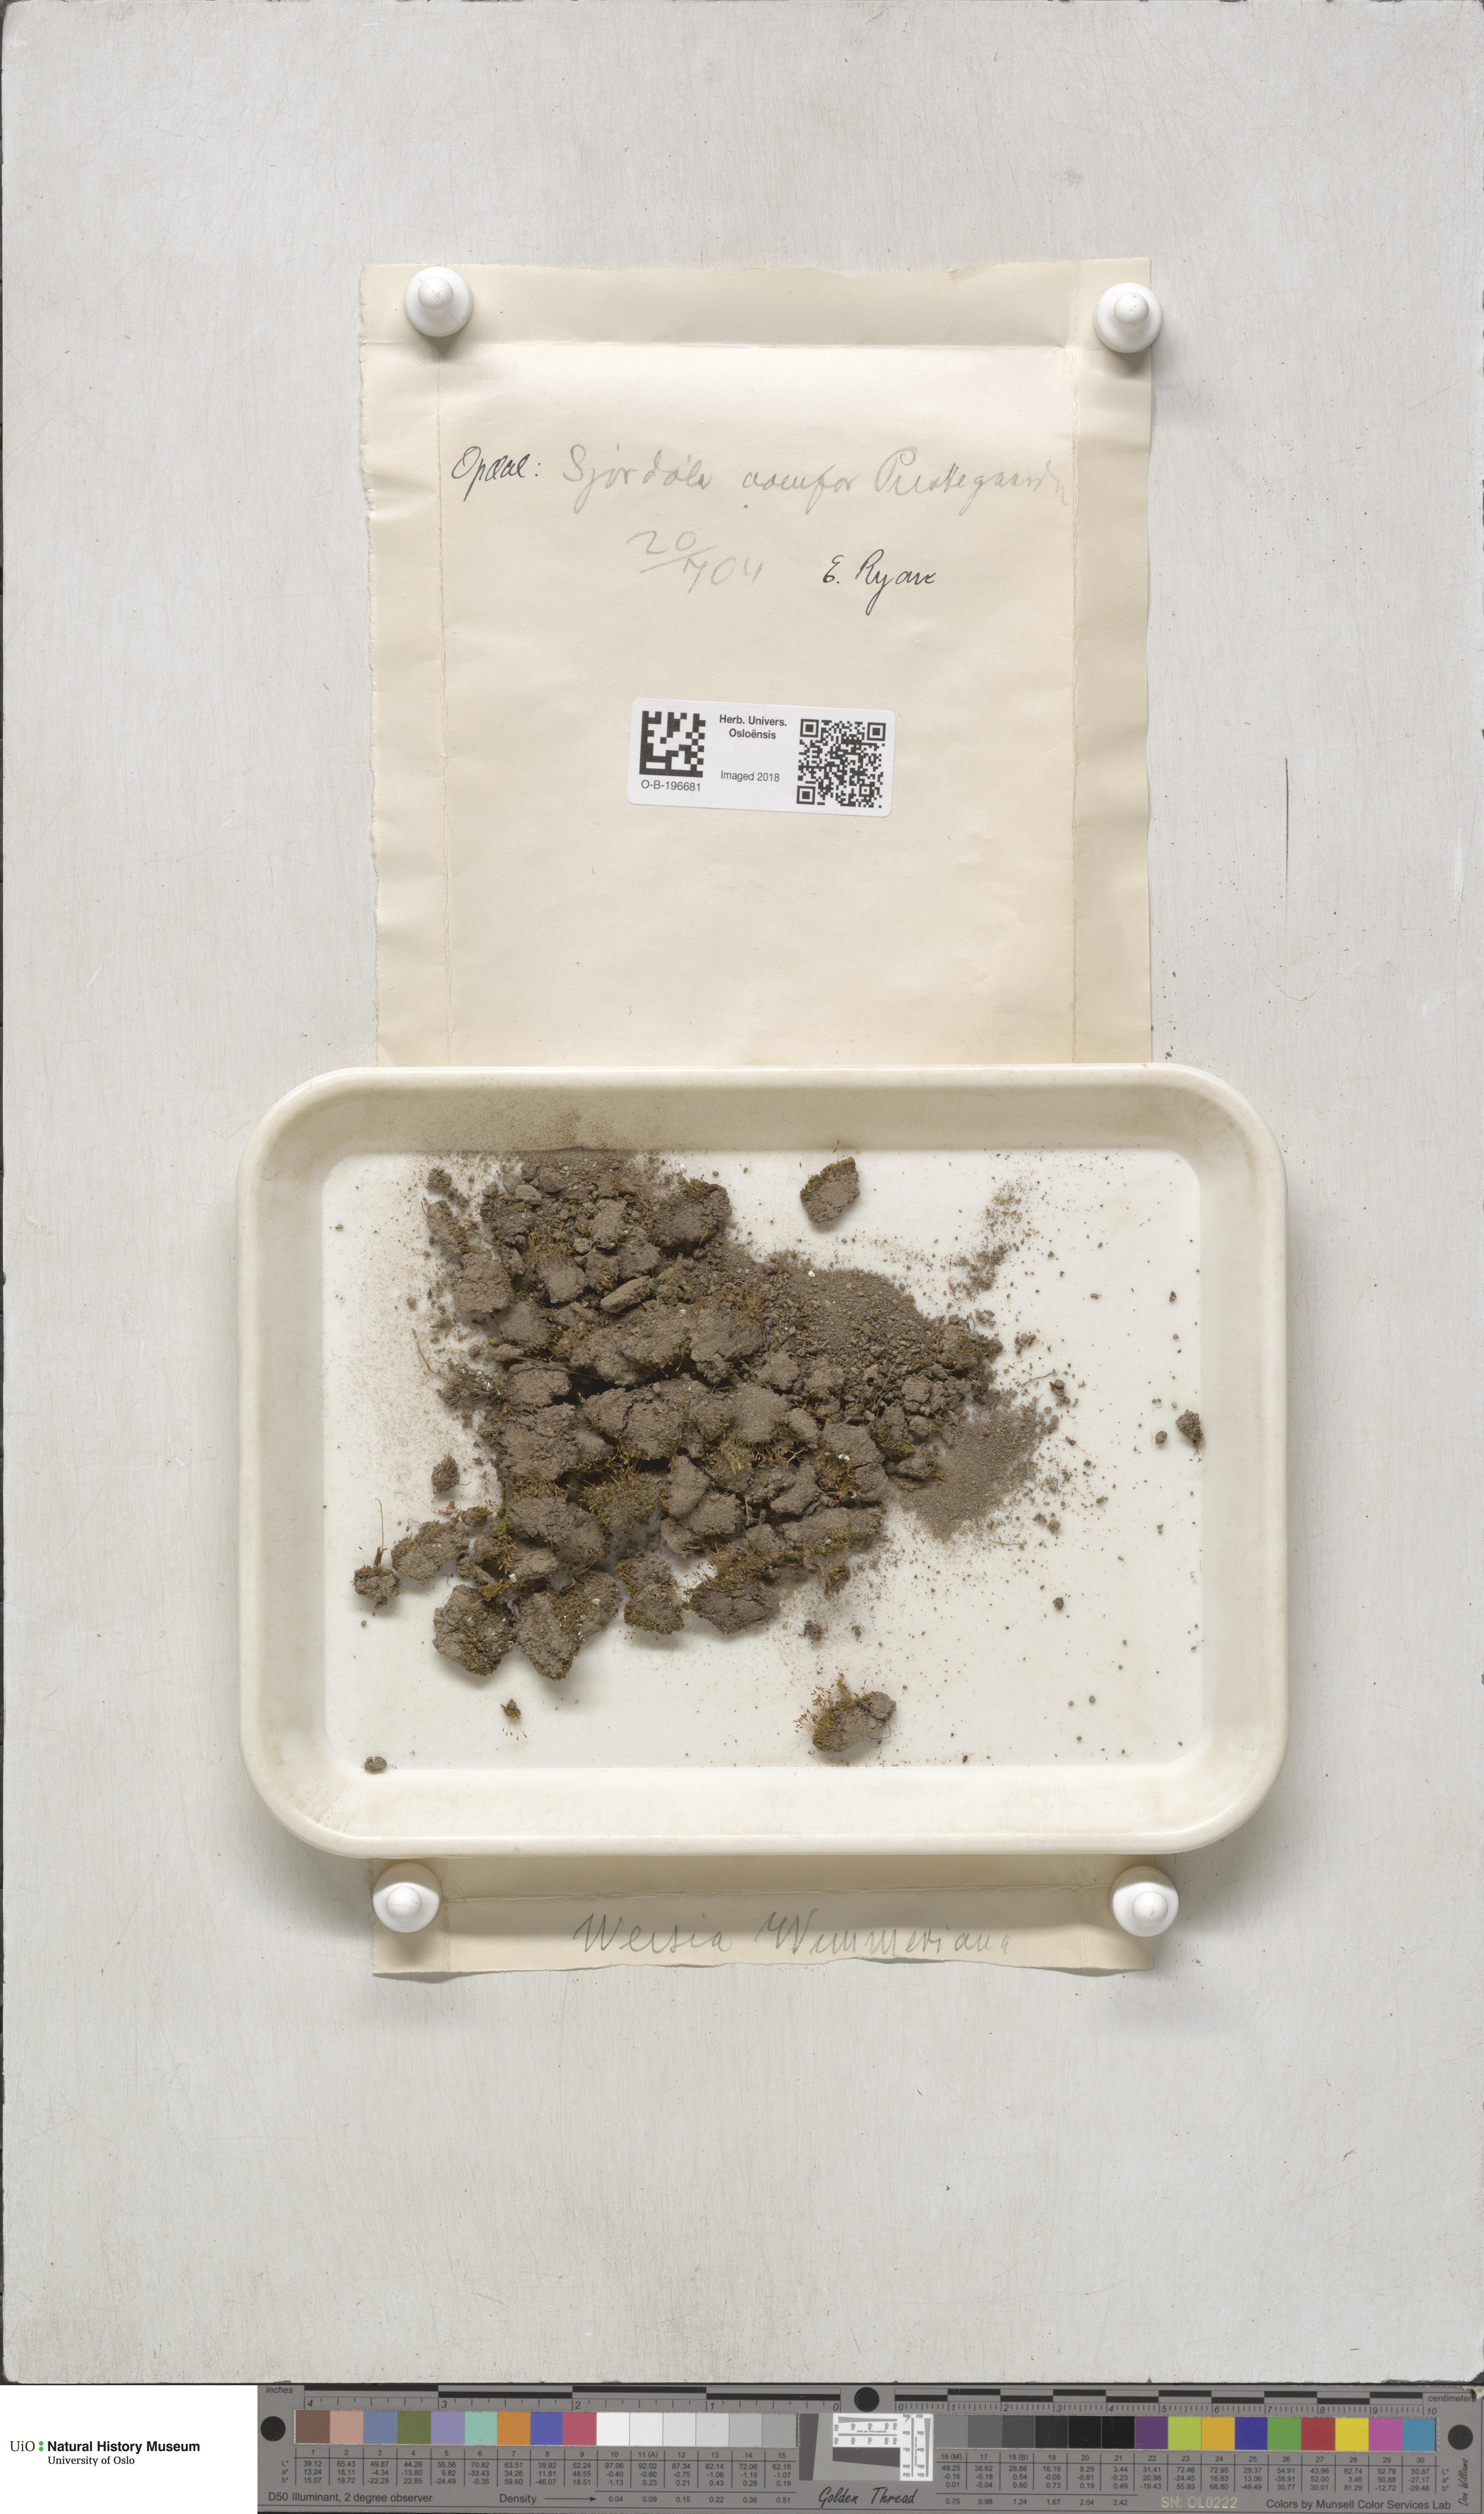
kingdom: Plantae
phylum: Bryophyta
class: Bryopsida
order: Pottiales
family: Pottiaceae
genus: Weissia
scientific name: Weissia wimmeriana
